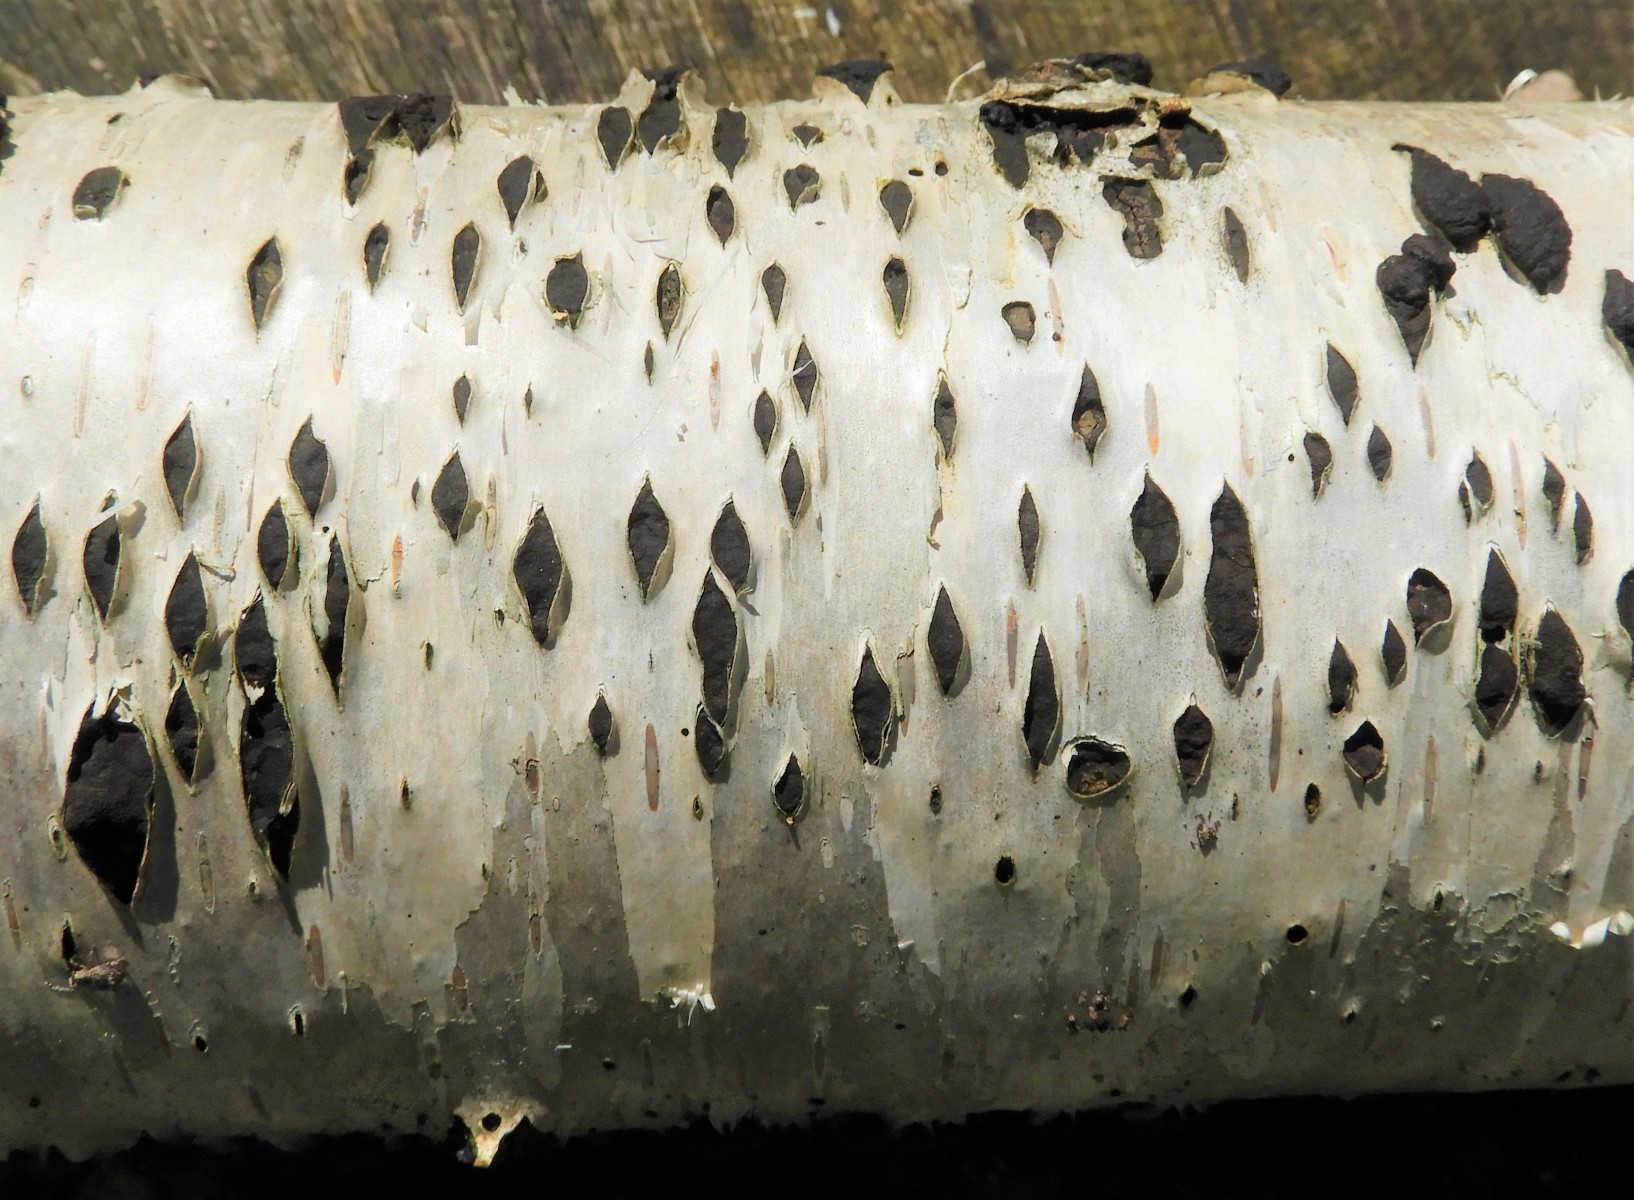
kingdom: Fungi
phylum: Ascomycota
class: Sordariomycetes
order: Xylariales
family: Hypoxylaceae
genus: Jackrogersella
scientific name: Jackrogersella multiformis
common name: foranderlig kulbær
